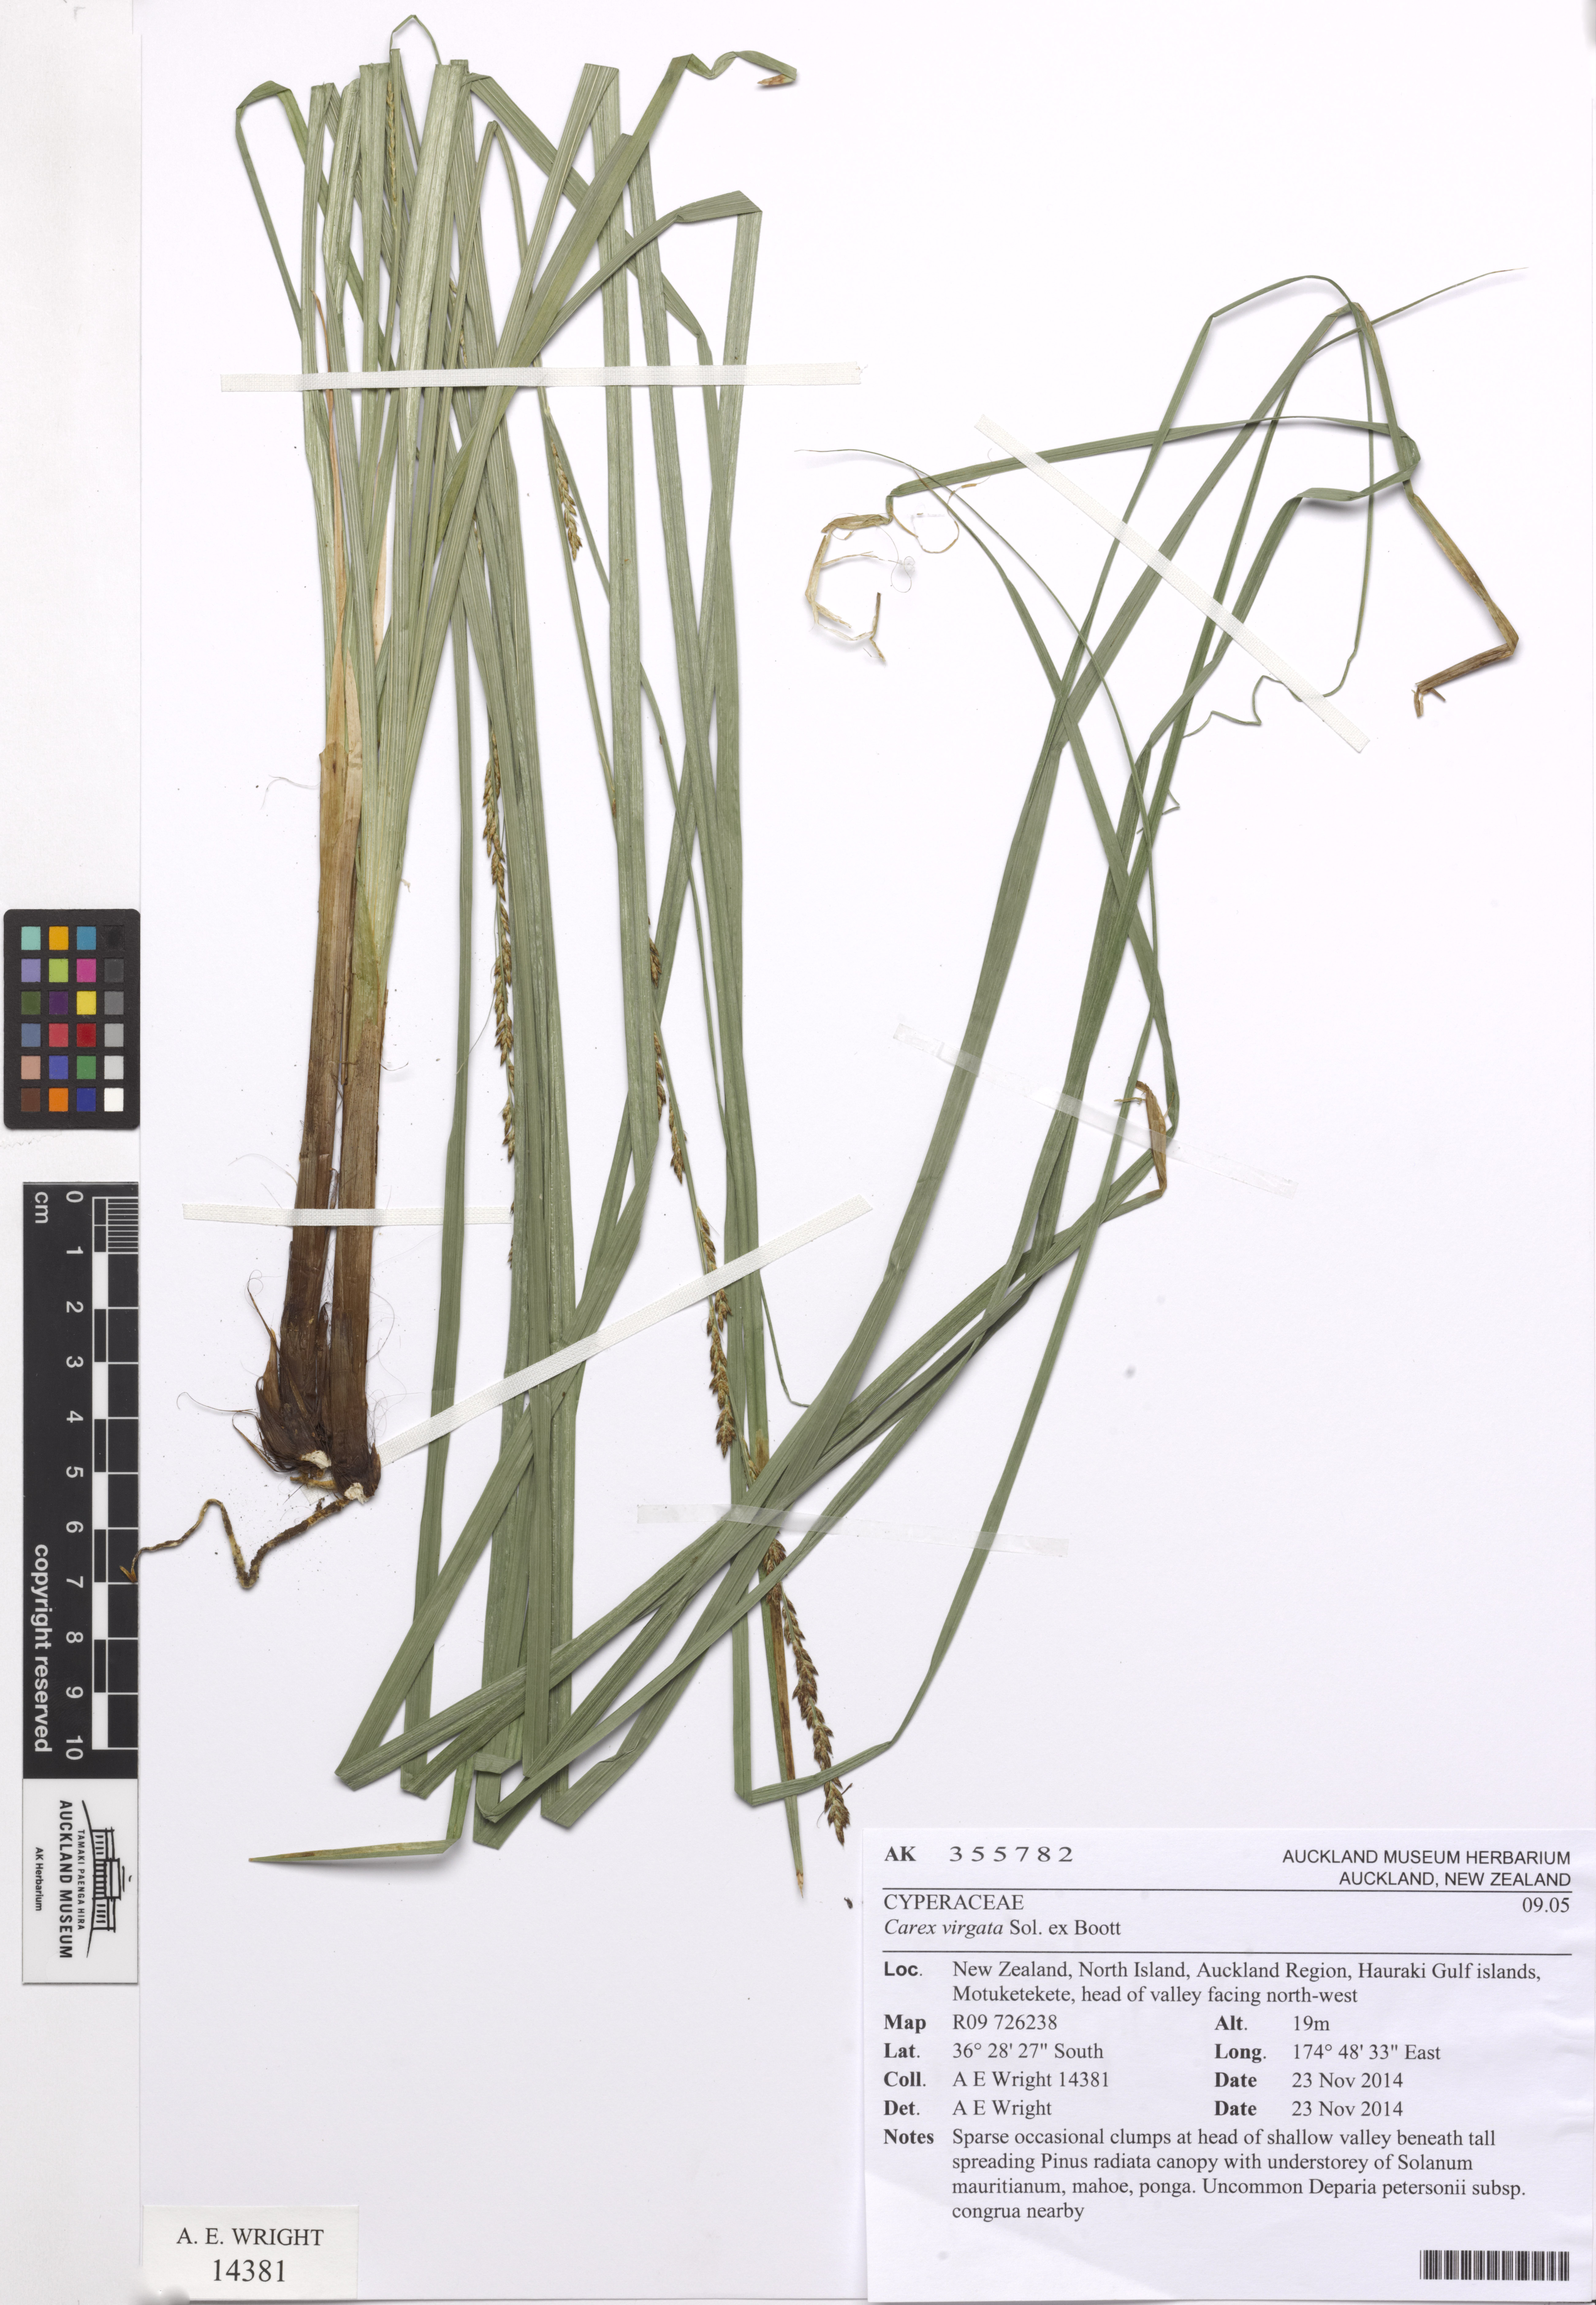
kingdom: Plantae
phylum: Tracheophyta
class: Liliopsida
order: Poales
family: Cyperaceae
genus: Carex
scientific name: Carex appressa
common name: Tussock sedge
